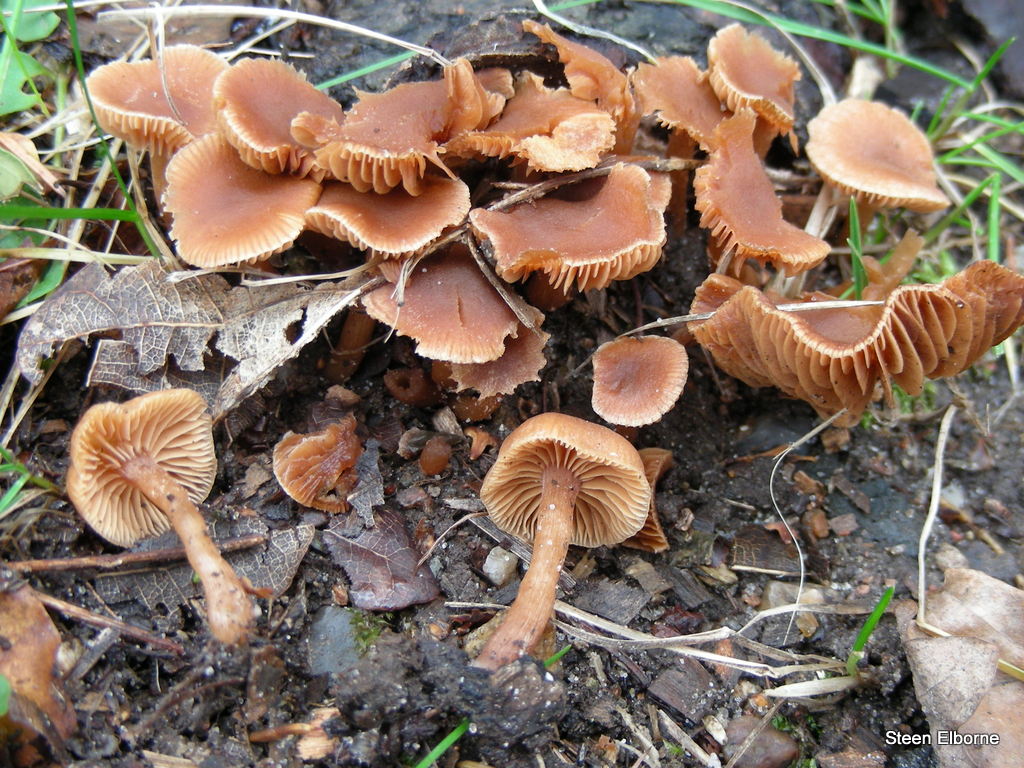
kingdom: Fungi
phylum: Basidiomycota
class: Agaricomycetes
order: Agaricales
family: Tubariaceae
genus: Tubaria
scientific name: Tubaria furfuracea
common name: kliddet fnughat
